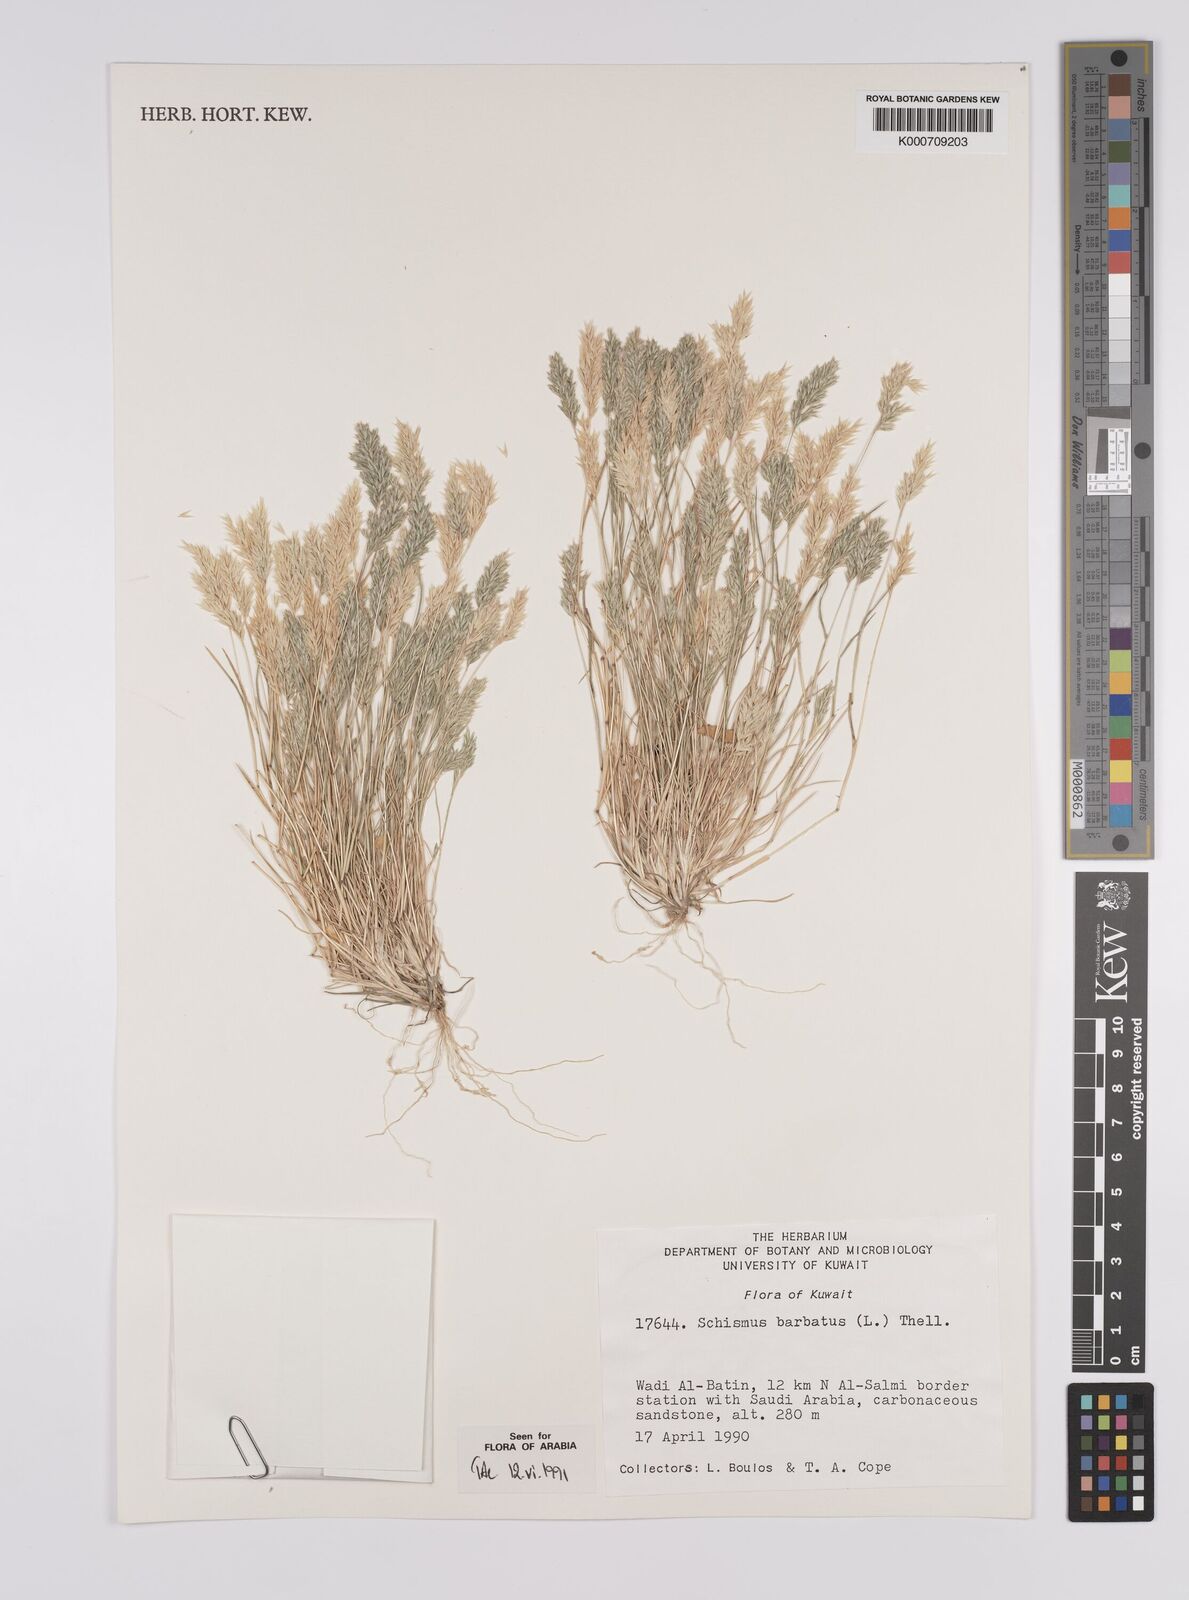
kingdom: Plantae
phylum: Tracheophyta
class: Liliopsida
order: Poales
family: Poaceae
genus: Schismus
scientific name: Schismus barbatus
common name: Kelch-grass
